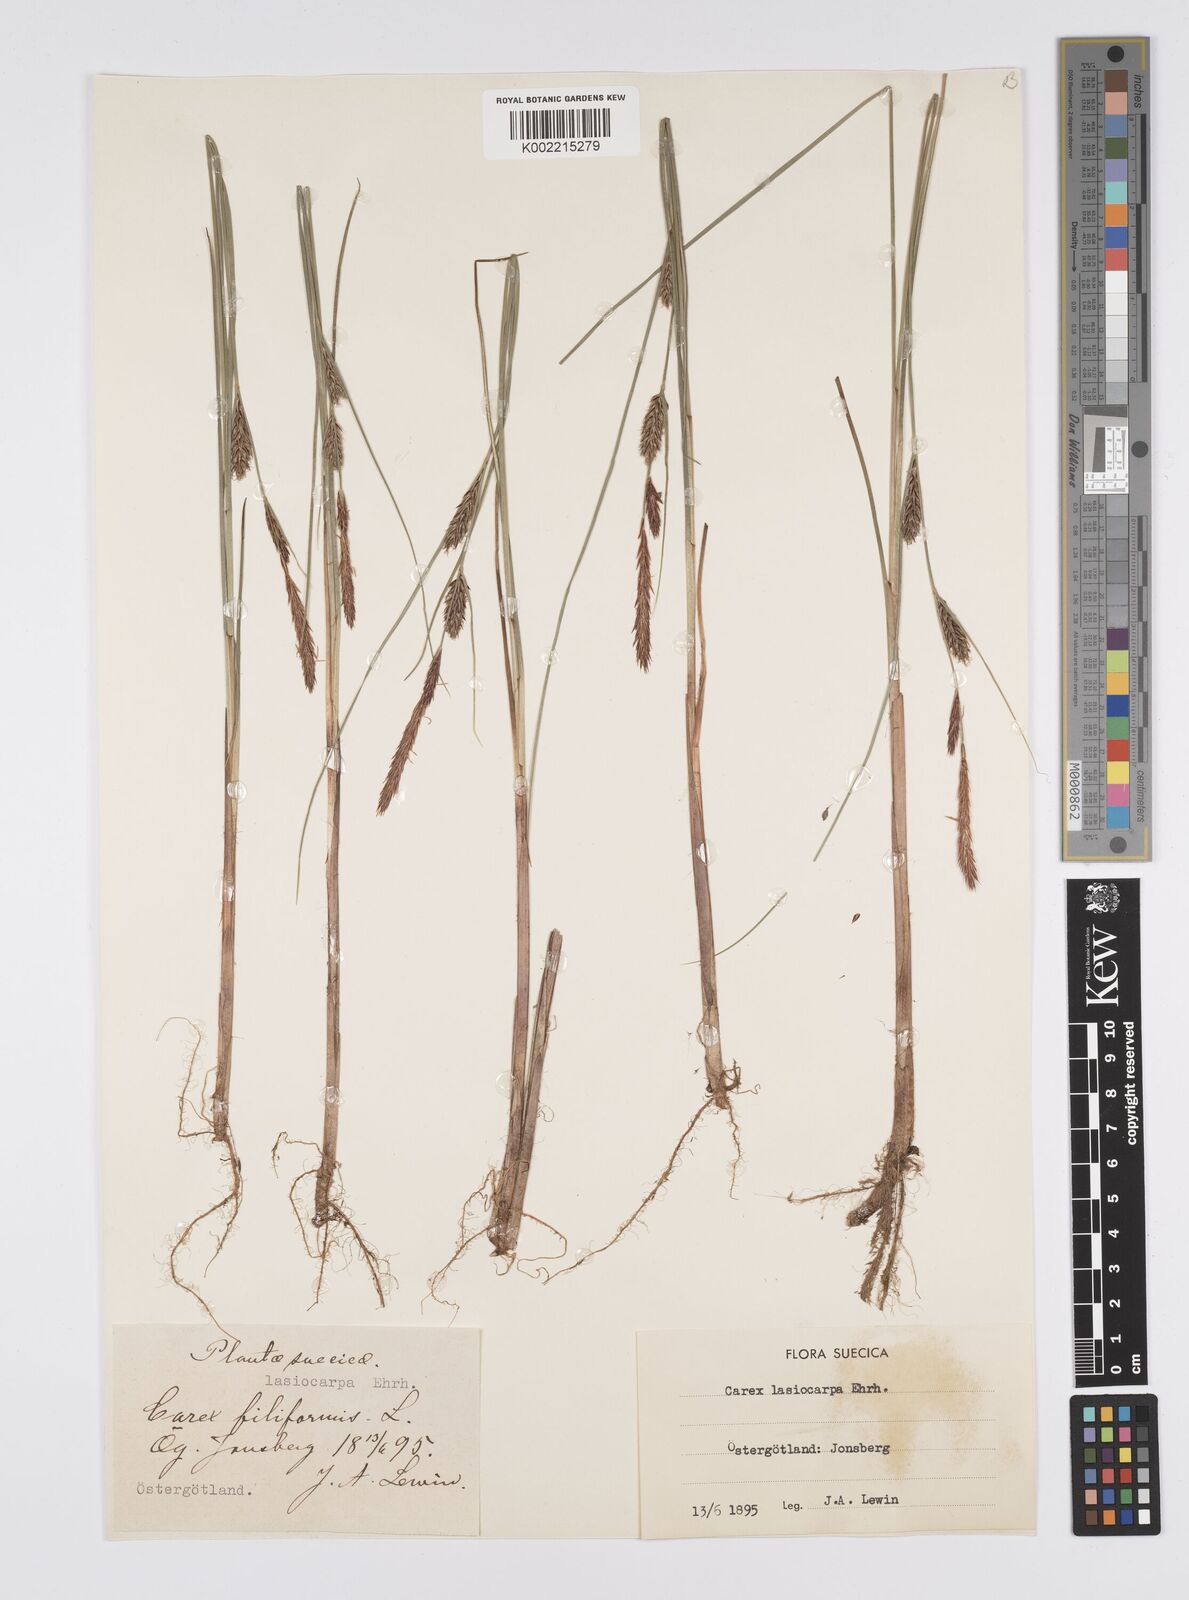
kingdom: Plantae
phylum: Tracheophyta
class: Liliopsida
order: Poales
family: Cyperaceae
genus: Carex
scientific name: Carex lasiocarpa
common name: Slender sedge
